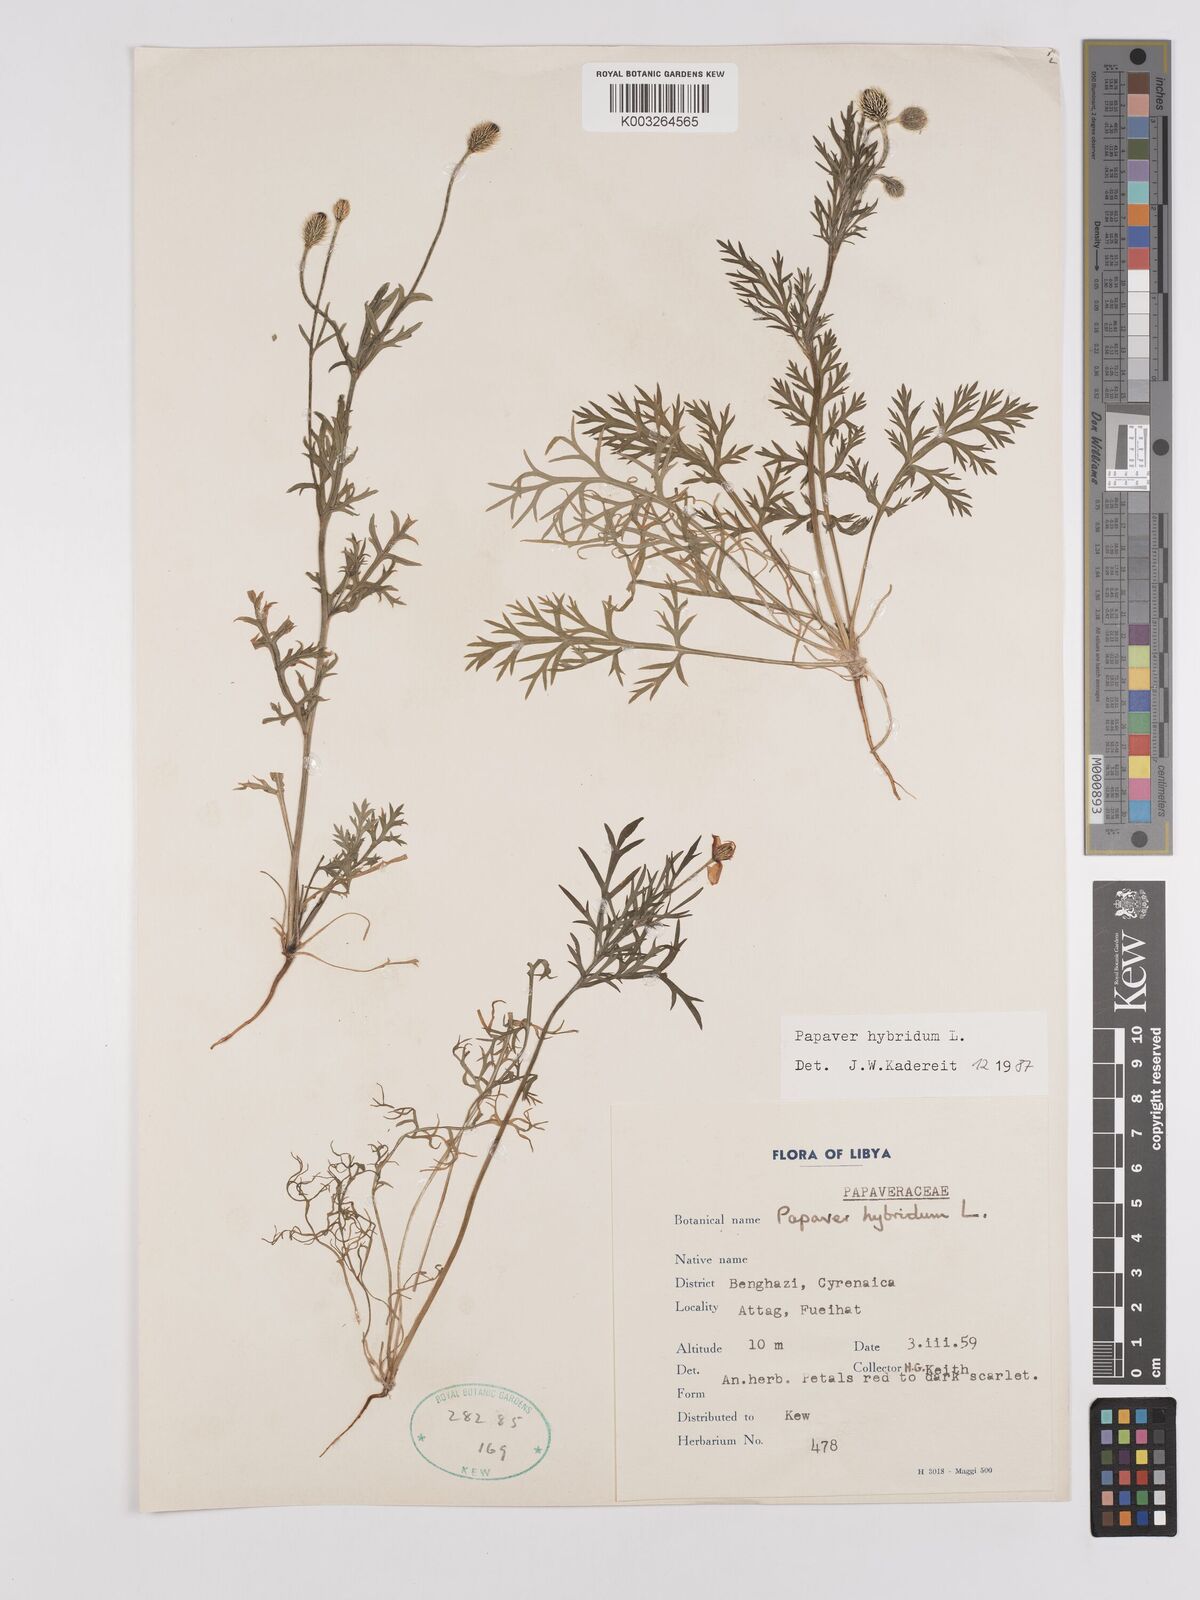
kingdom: Plantae
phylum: Tracheophyta
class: Magnoliopsida
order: Ranunculales
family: Papaveraceae
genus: Papaver
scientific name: Papaver
